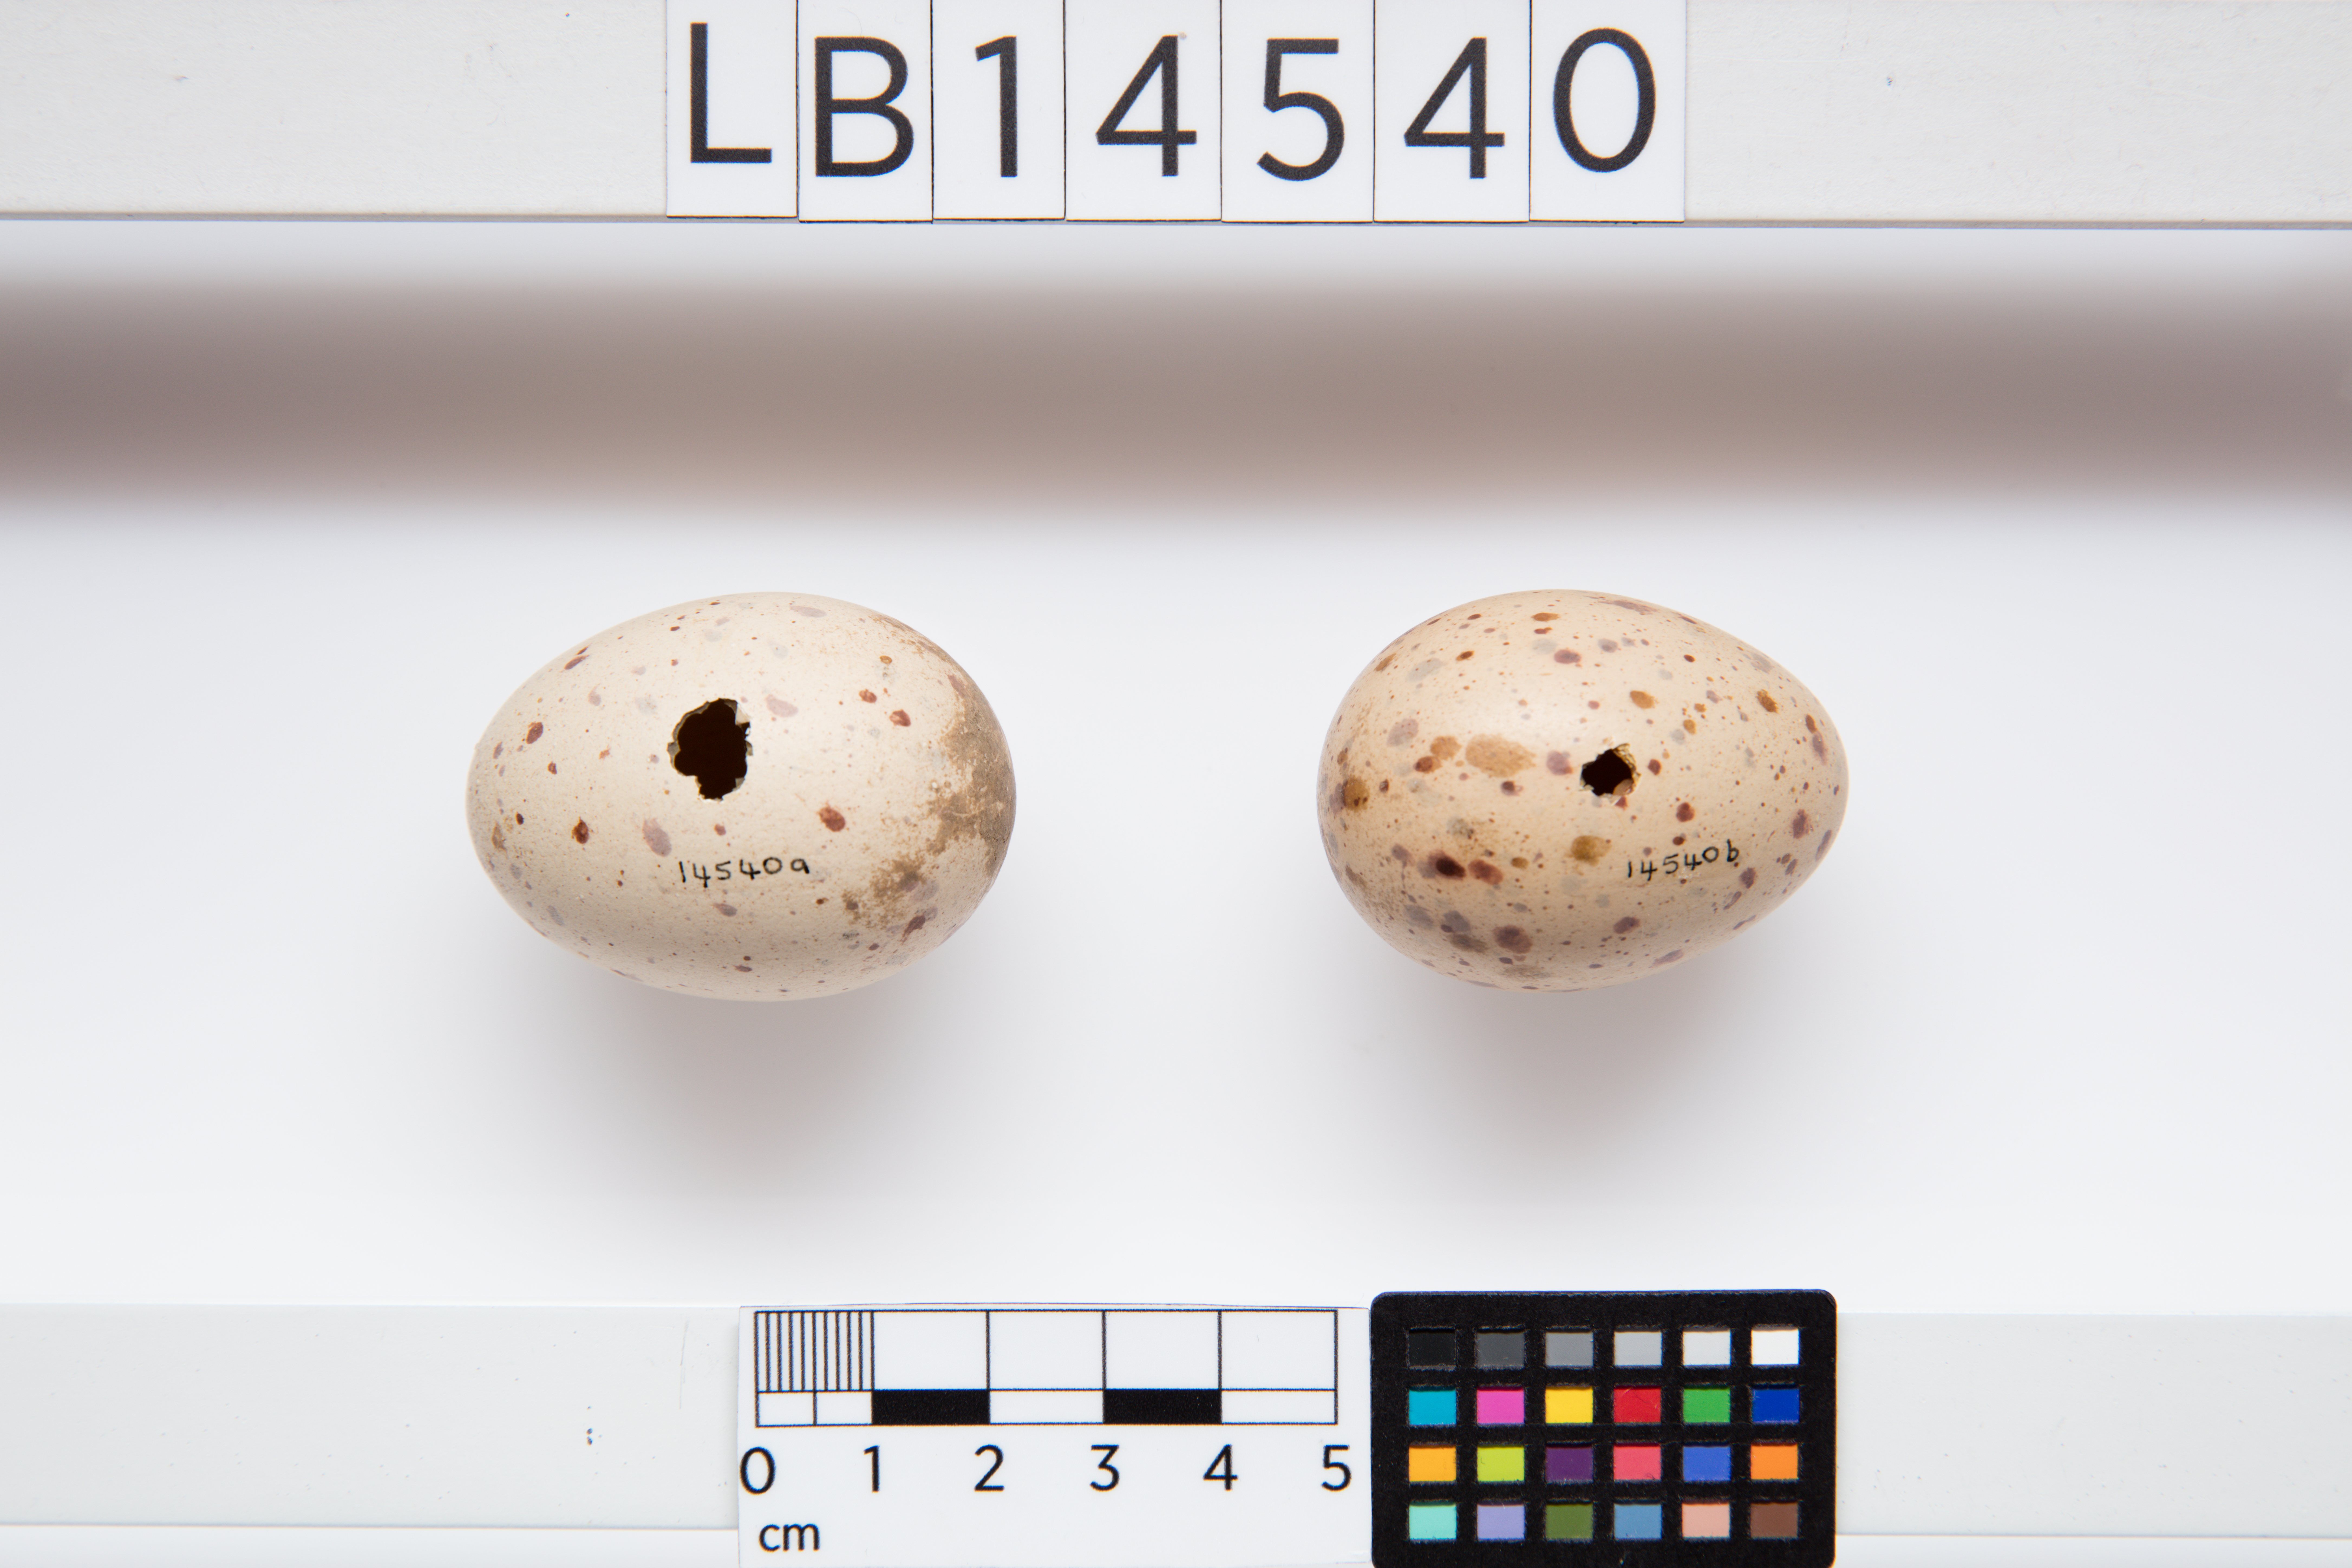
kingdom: Animalia
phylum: Chordata
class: Aves
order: Gruiformes
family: Rallidae
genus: Porphyrio
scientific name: Porphyrio melanotus
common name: Australasian swamphen
